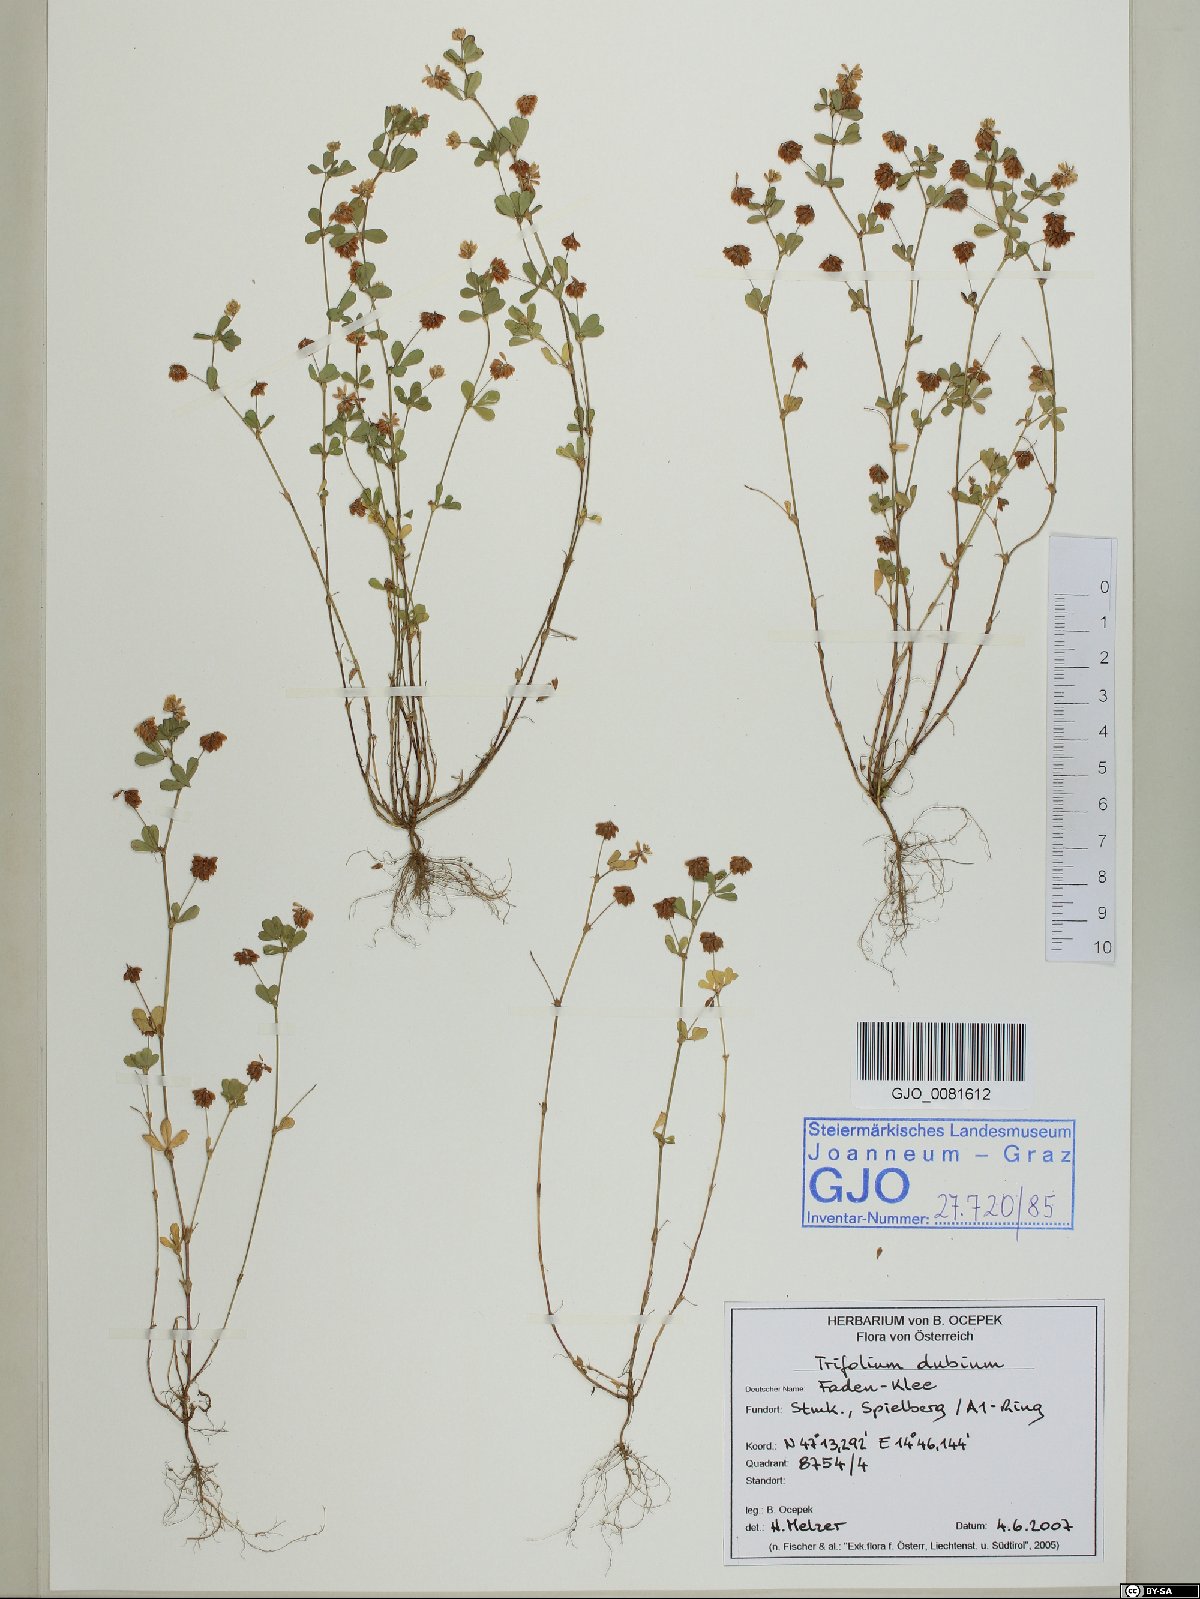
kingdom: Plantae
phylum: Tracheophyta
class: Magnoliopsida
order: Fabales
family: Fabaceae
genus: Trifolium
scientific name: Trifolium dubium
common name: Suckling clover
